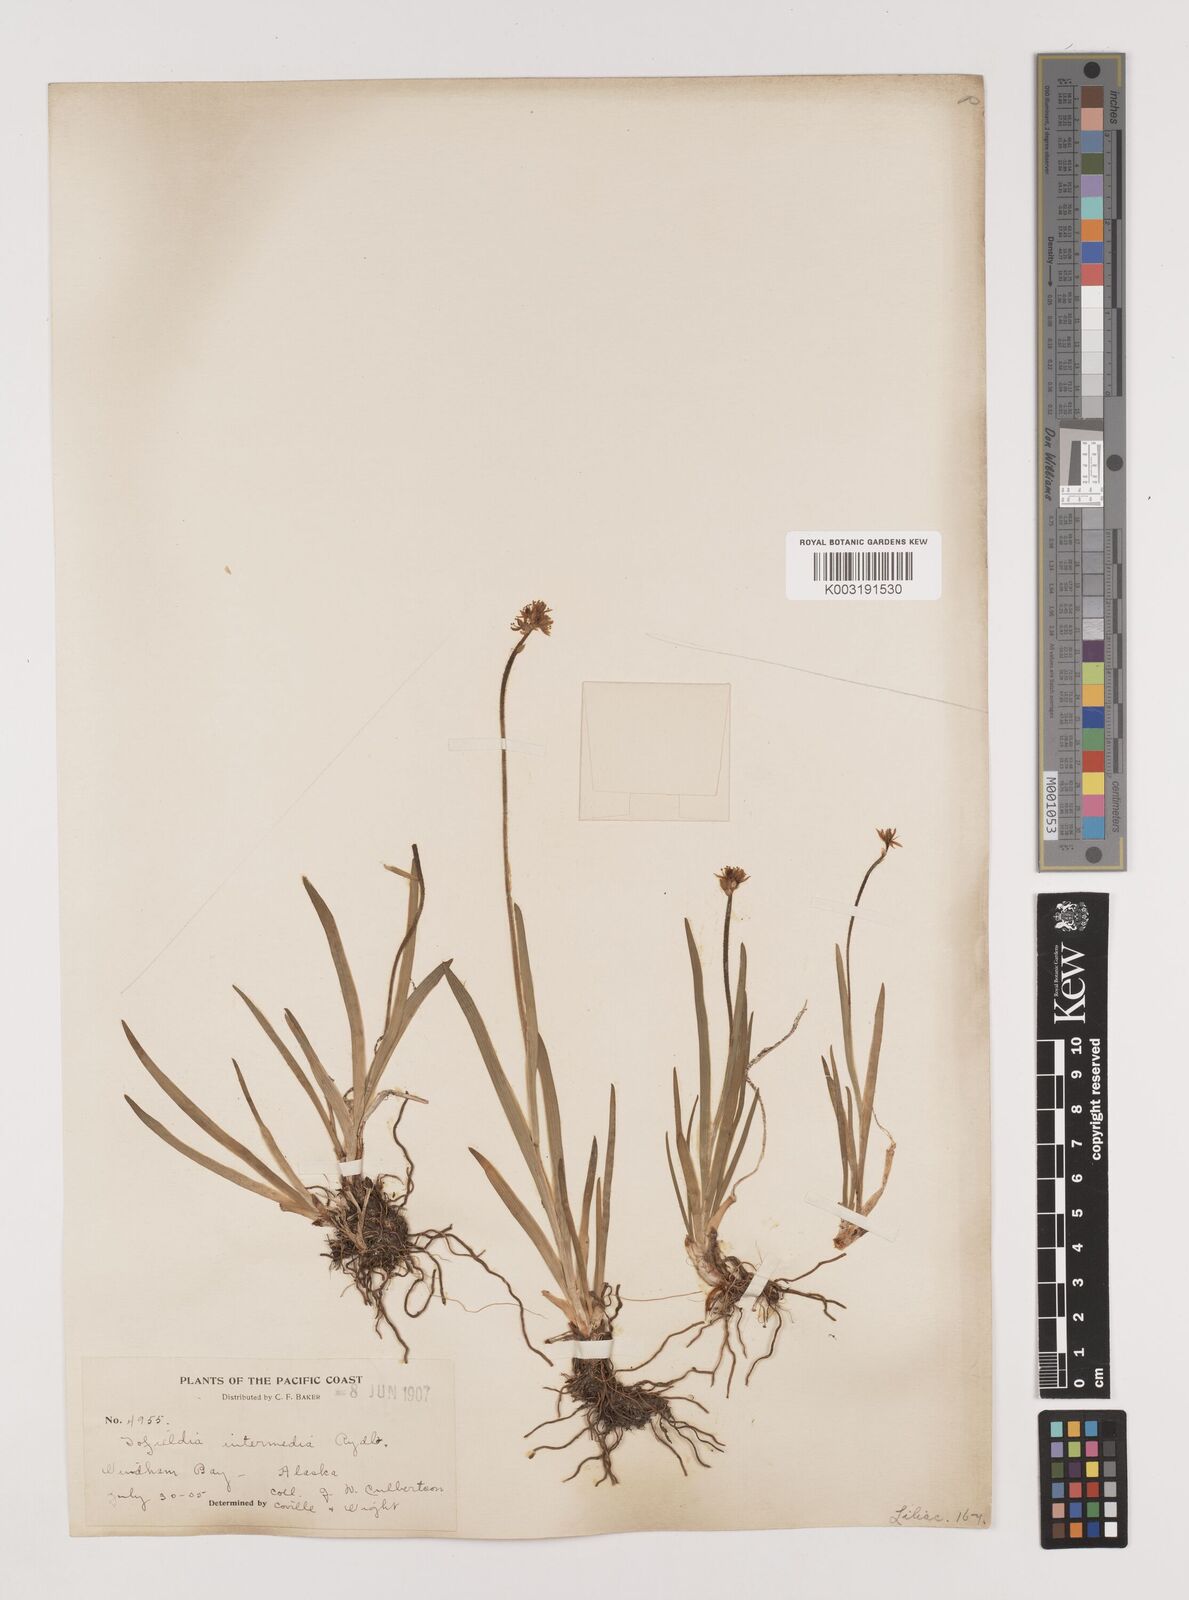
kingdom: Plantae
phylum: Tracheophyta
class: Liliopsida
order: Alismatales
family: Tofieldiaceae
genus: Triantha
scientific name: Triantha occidentalis
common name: Western false asphodel
